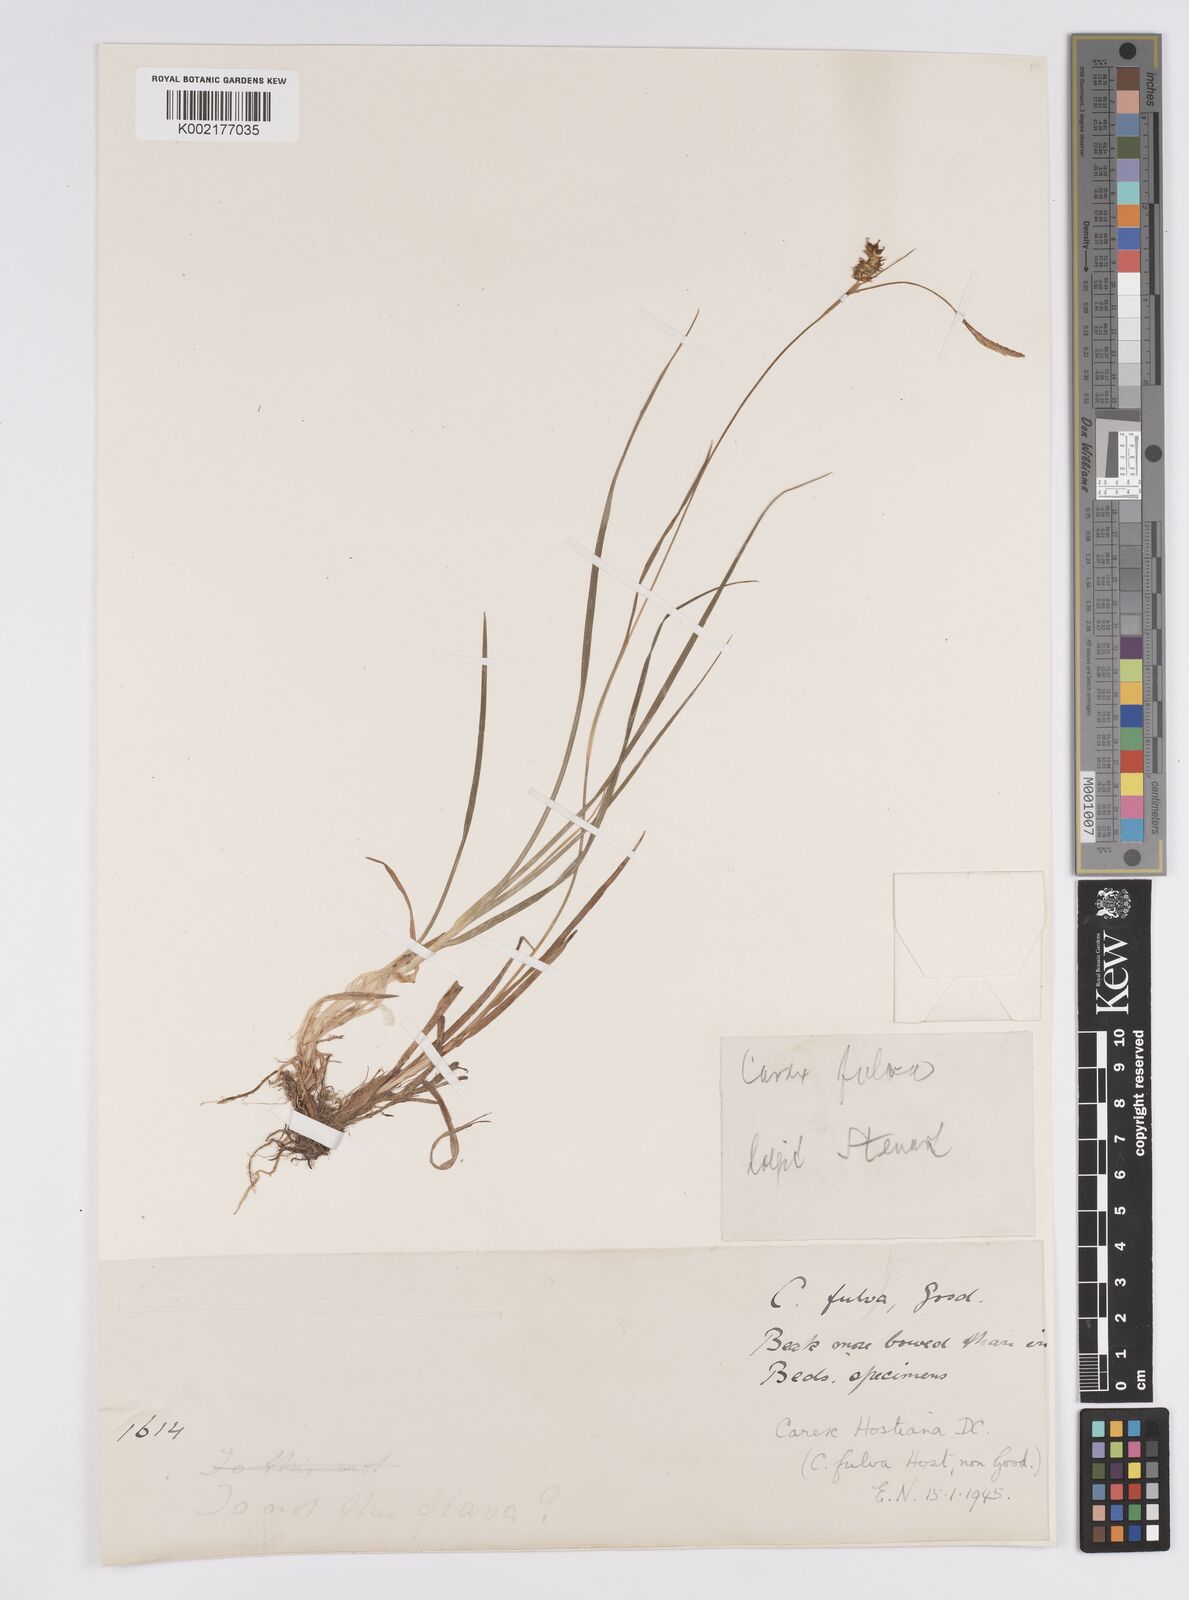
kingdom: Plantae
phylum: Tracheophyta
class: Liliopsida
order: Poales
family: Cyperaceae
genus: Carex
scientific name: Carex hostiana
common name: Tawny sedge
